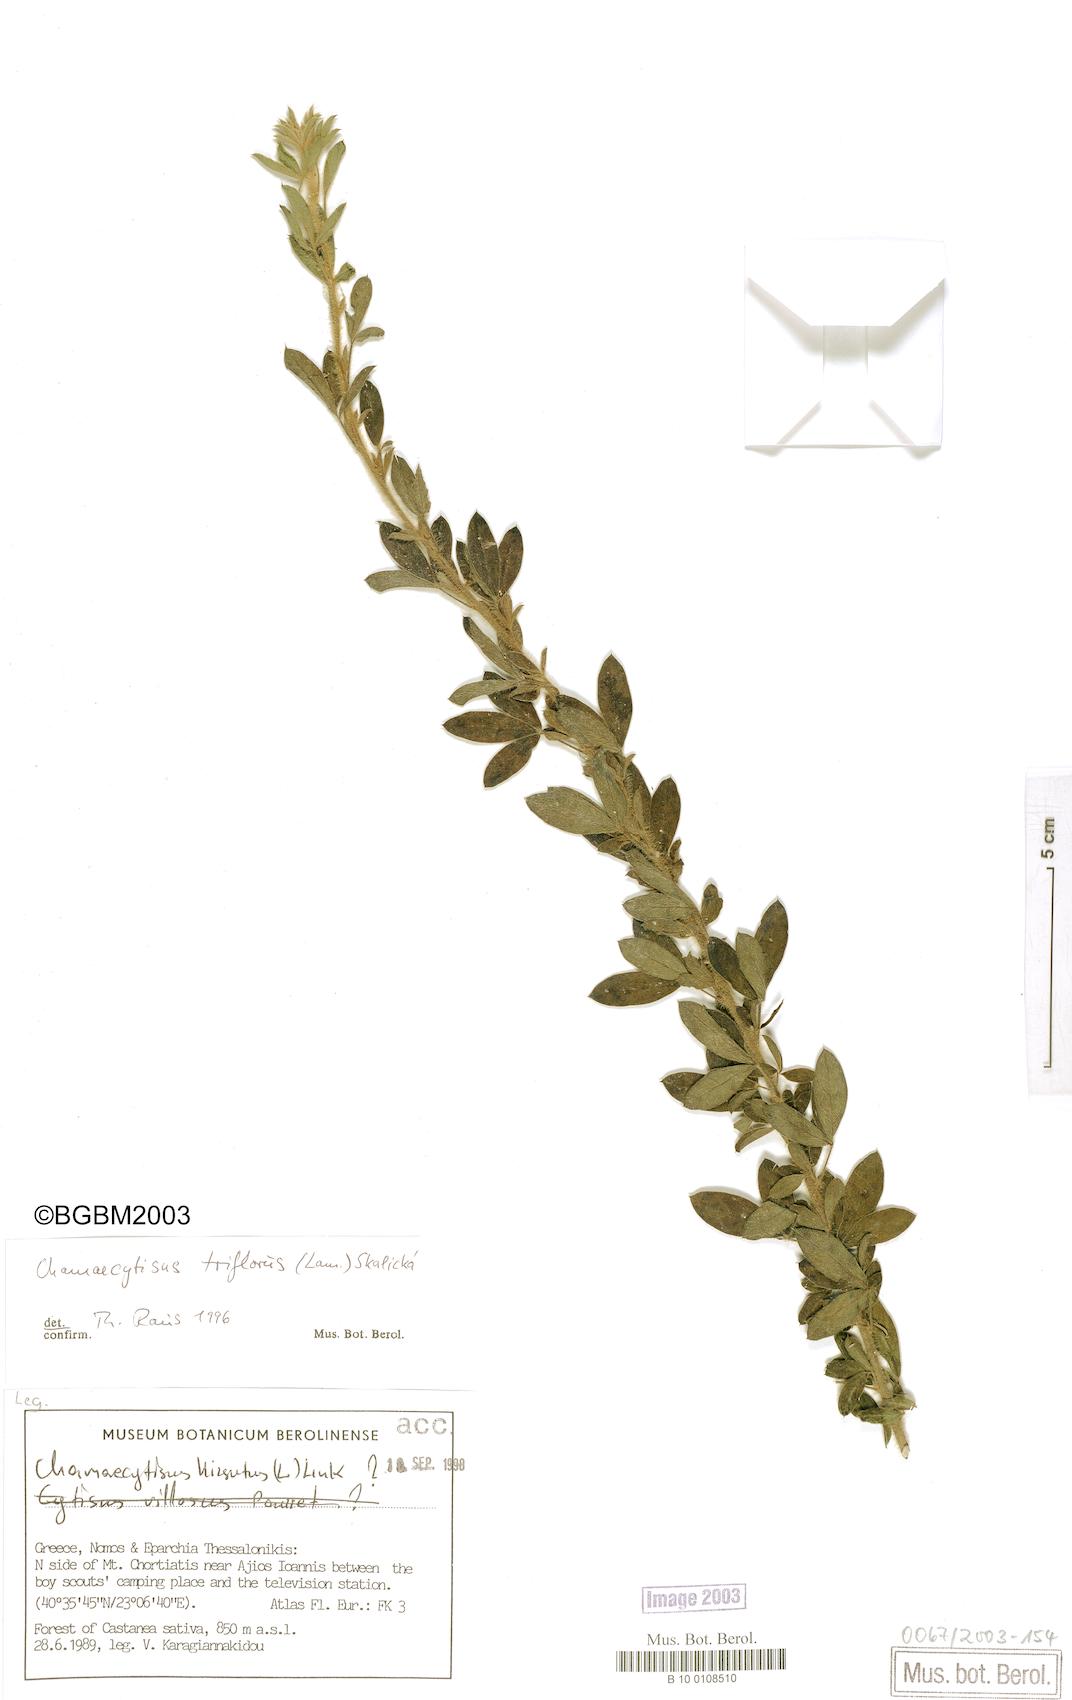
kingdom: Plantae
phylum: Tracheophyta
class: Magnoliopsida
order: Fabales
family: Fabaceae
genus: Chamaecytisus
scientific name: Chamaecytisus triflorus
